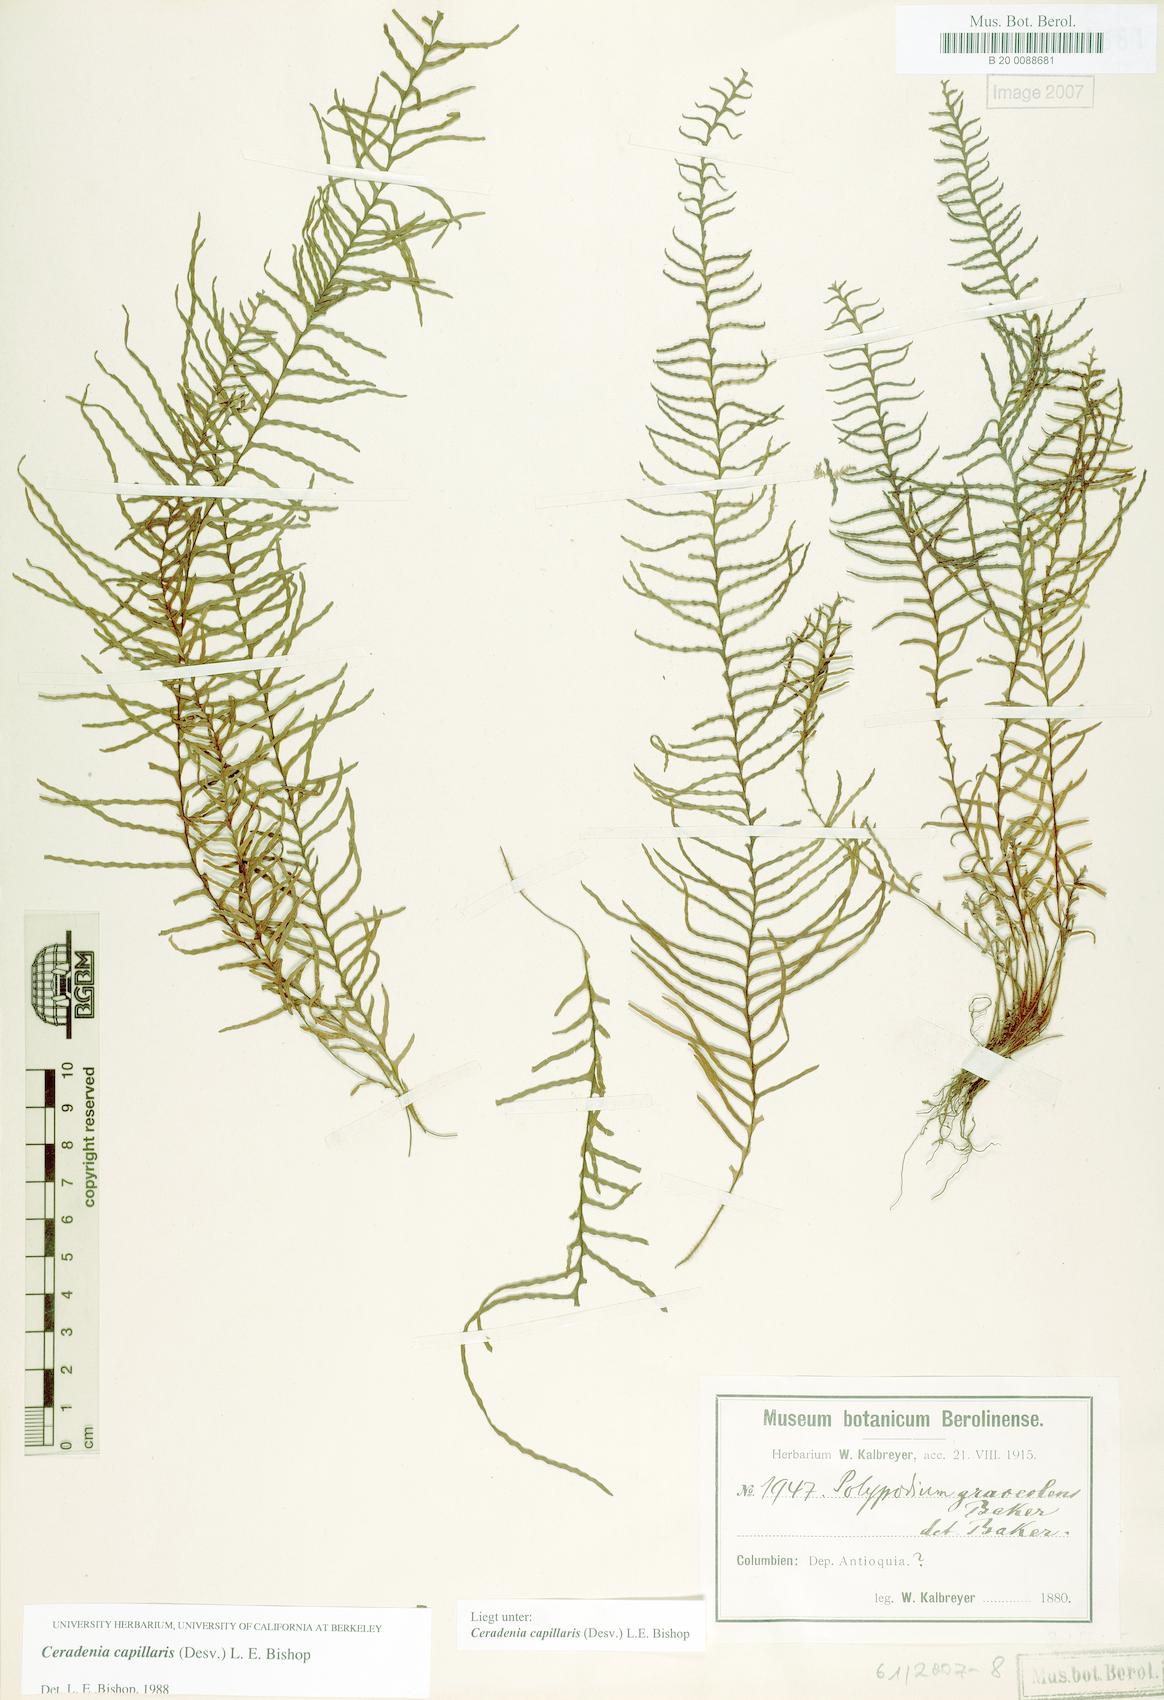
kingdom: Plantae
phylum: Tracheophyta
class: Polypodiopsida
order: Polypodiales
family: Polypodiaceae
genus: Ceradenia
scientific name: Ceradenia capillaris
